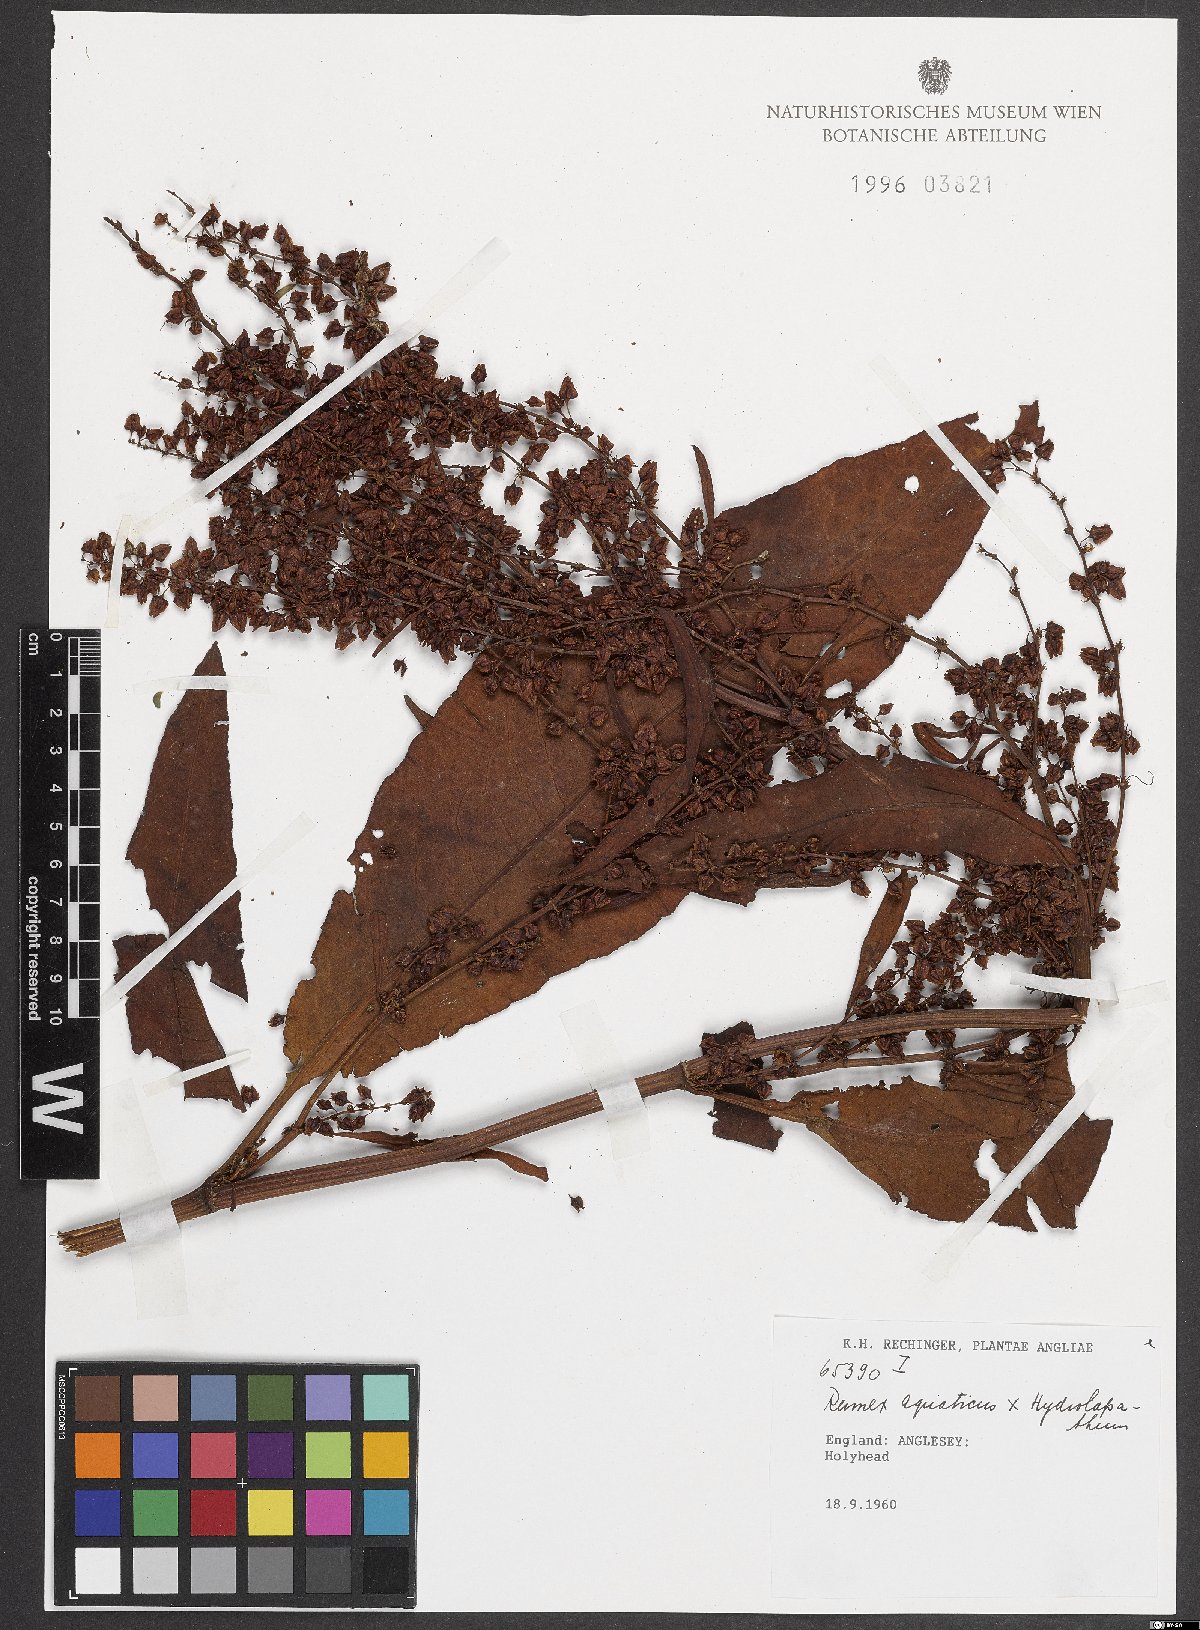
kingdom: Plantae
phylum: Tracheophyta
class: Magnoliopsida
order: Caryophyllales
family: Polygonaceae
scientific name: Polygonaceae
